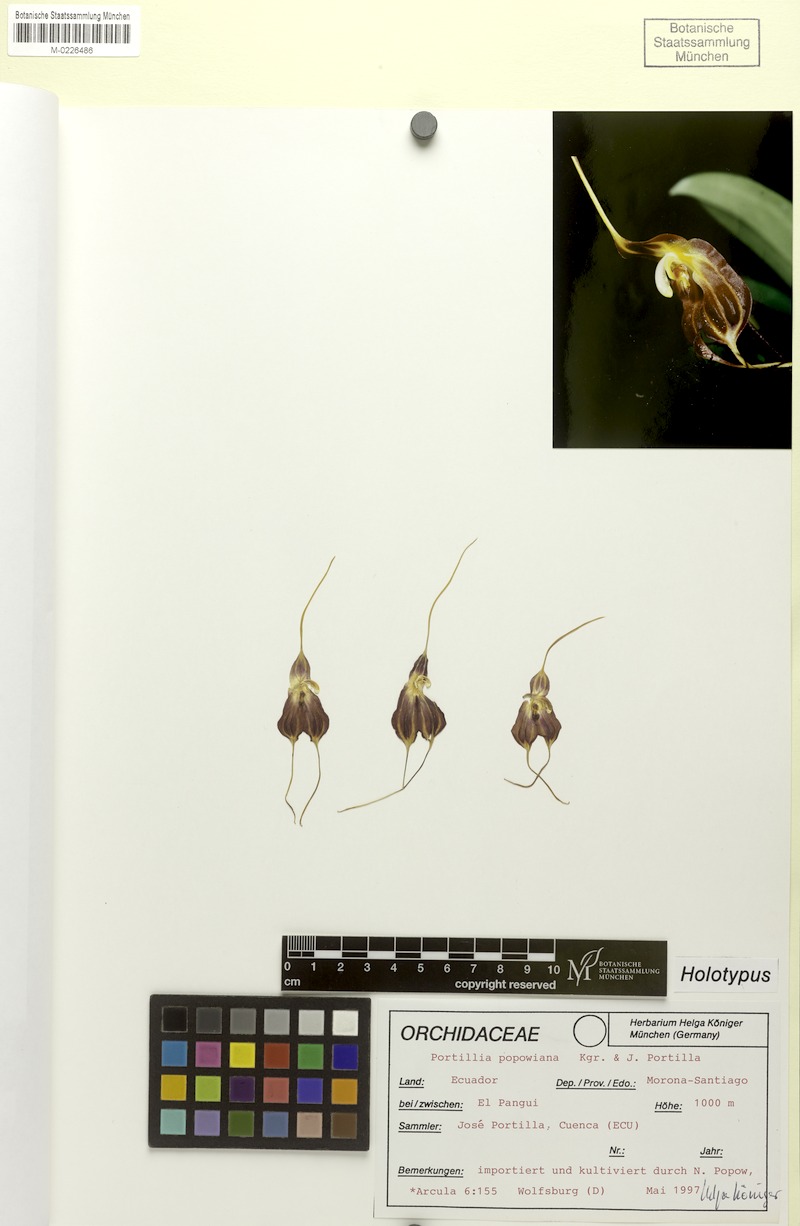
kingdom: Plantae
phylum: Tracheophyta
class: Liliopsida
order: Asparagales
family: Orchidaceae
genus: Masdevallia
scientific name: Masdevallia bicornis
